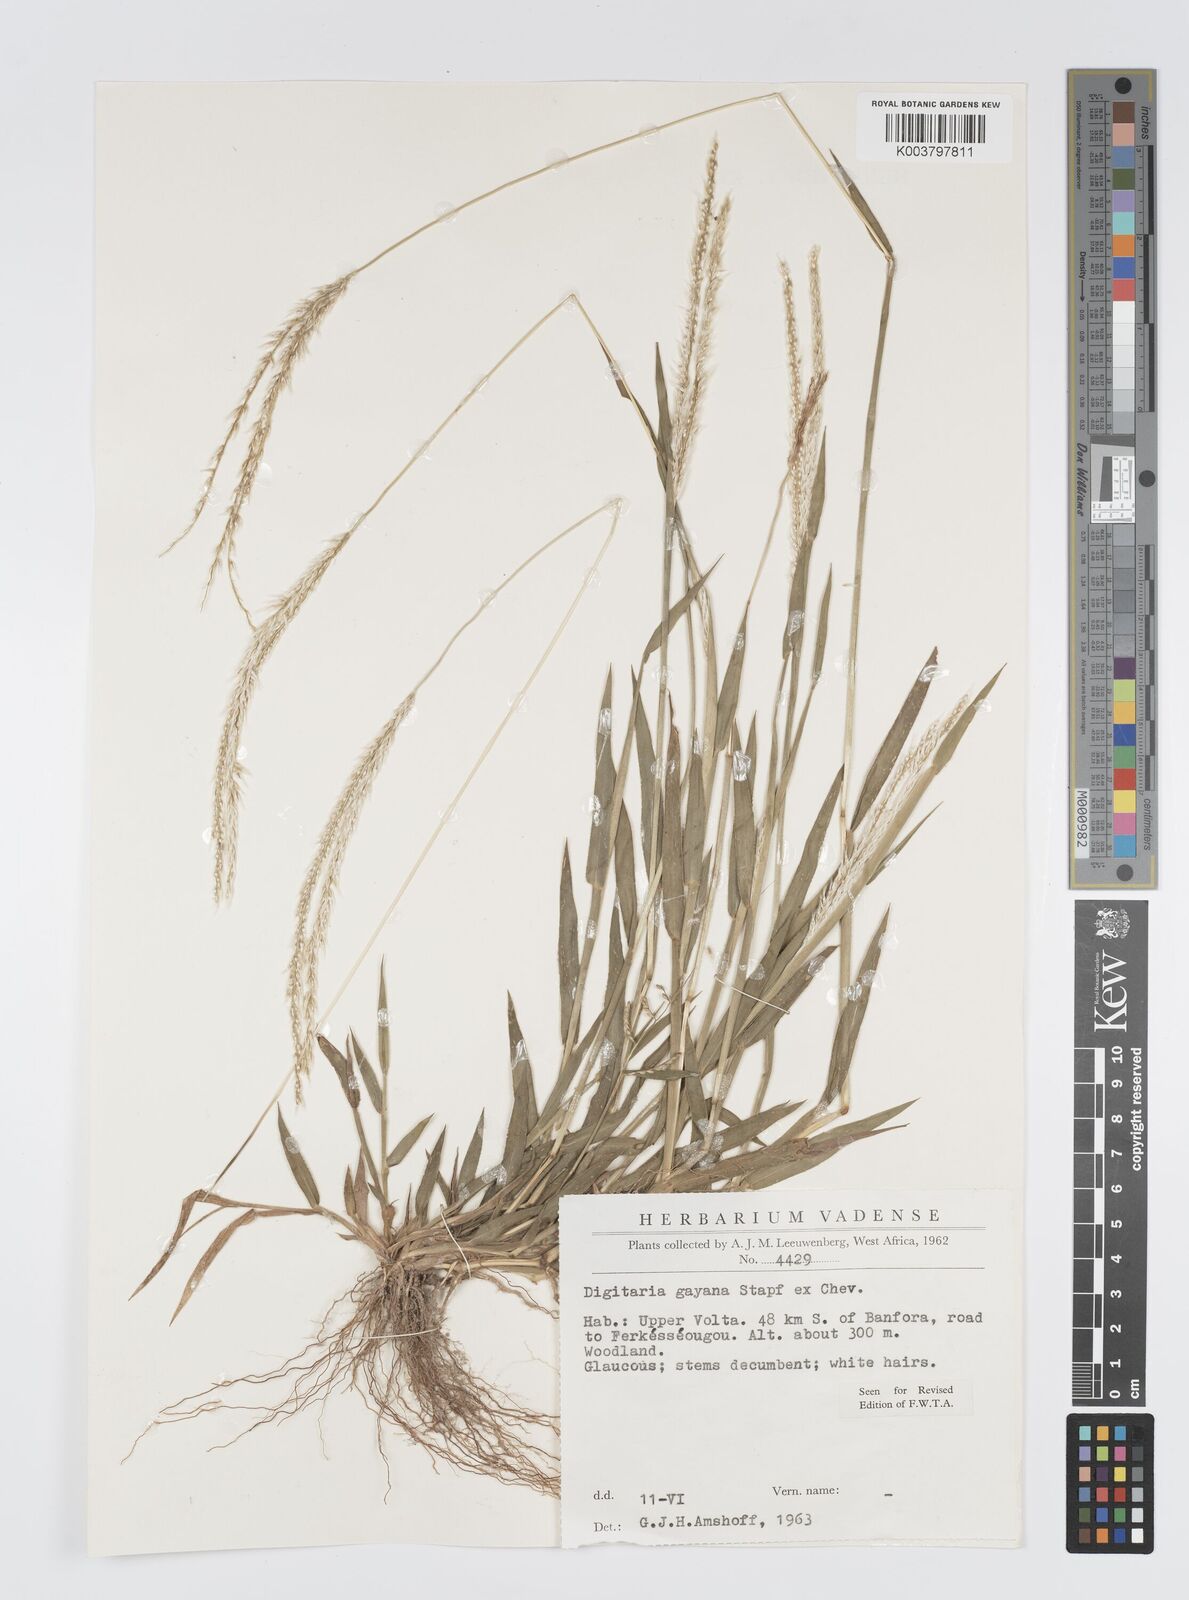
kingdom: Plantae
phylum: Tracheophyta
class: Liliopsida
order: Poales
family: Poaceae
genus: Digitaria
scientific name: Digitaria gayana
